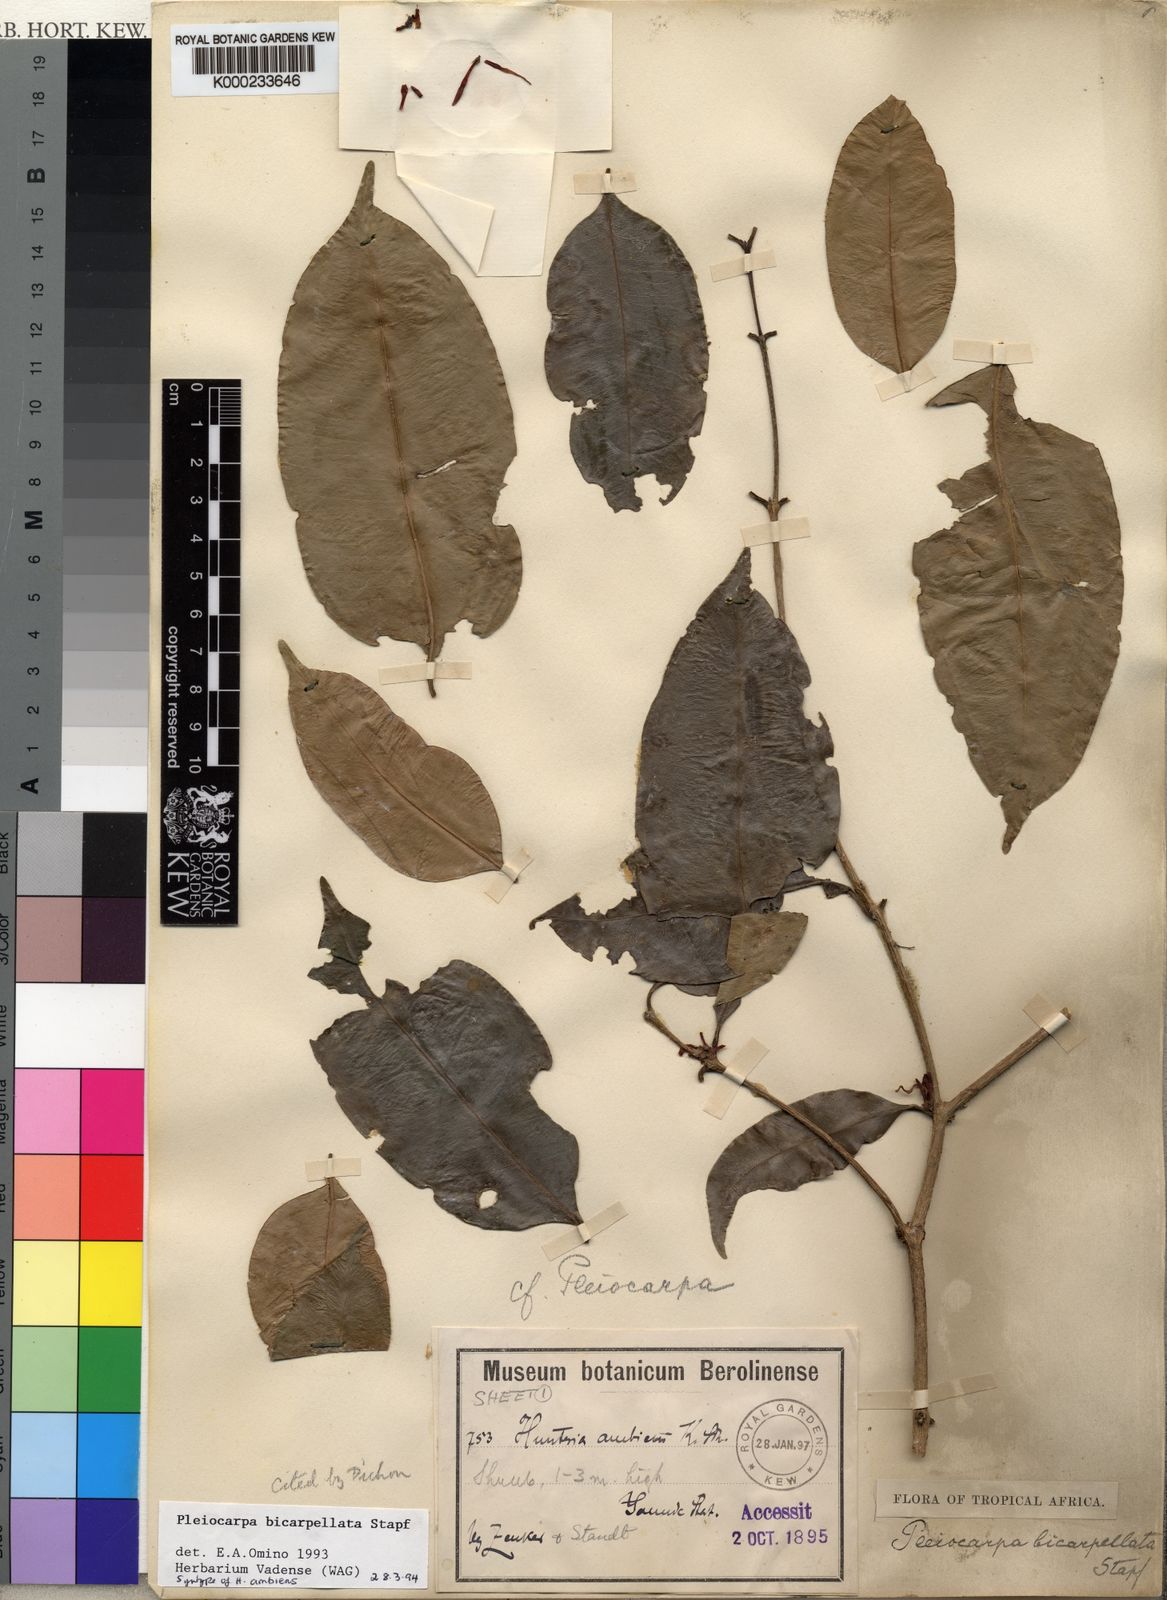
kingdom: Plantae
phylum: Tracheophyta
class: Magnoliopsida
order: Gentianales
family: Apocynaceae
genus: Pleiocarpa
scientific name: Pleiocarpa bicarpellata
